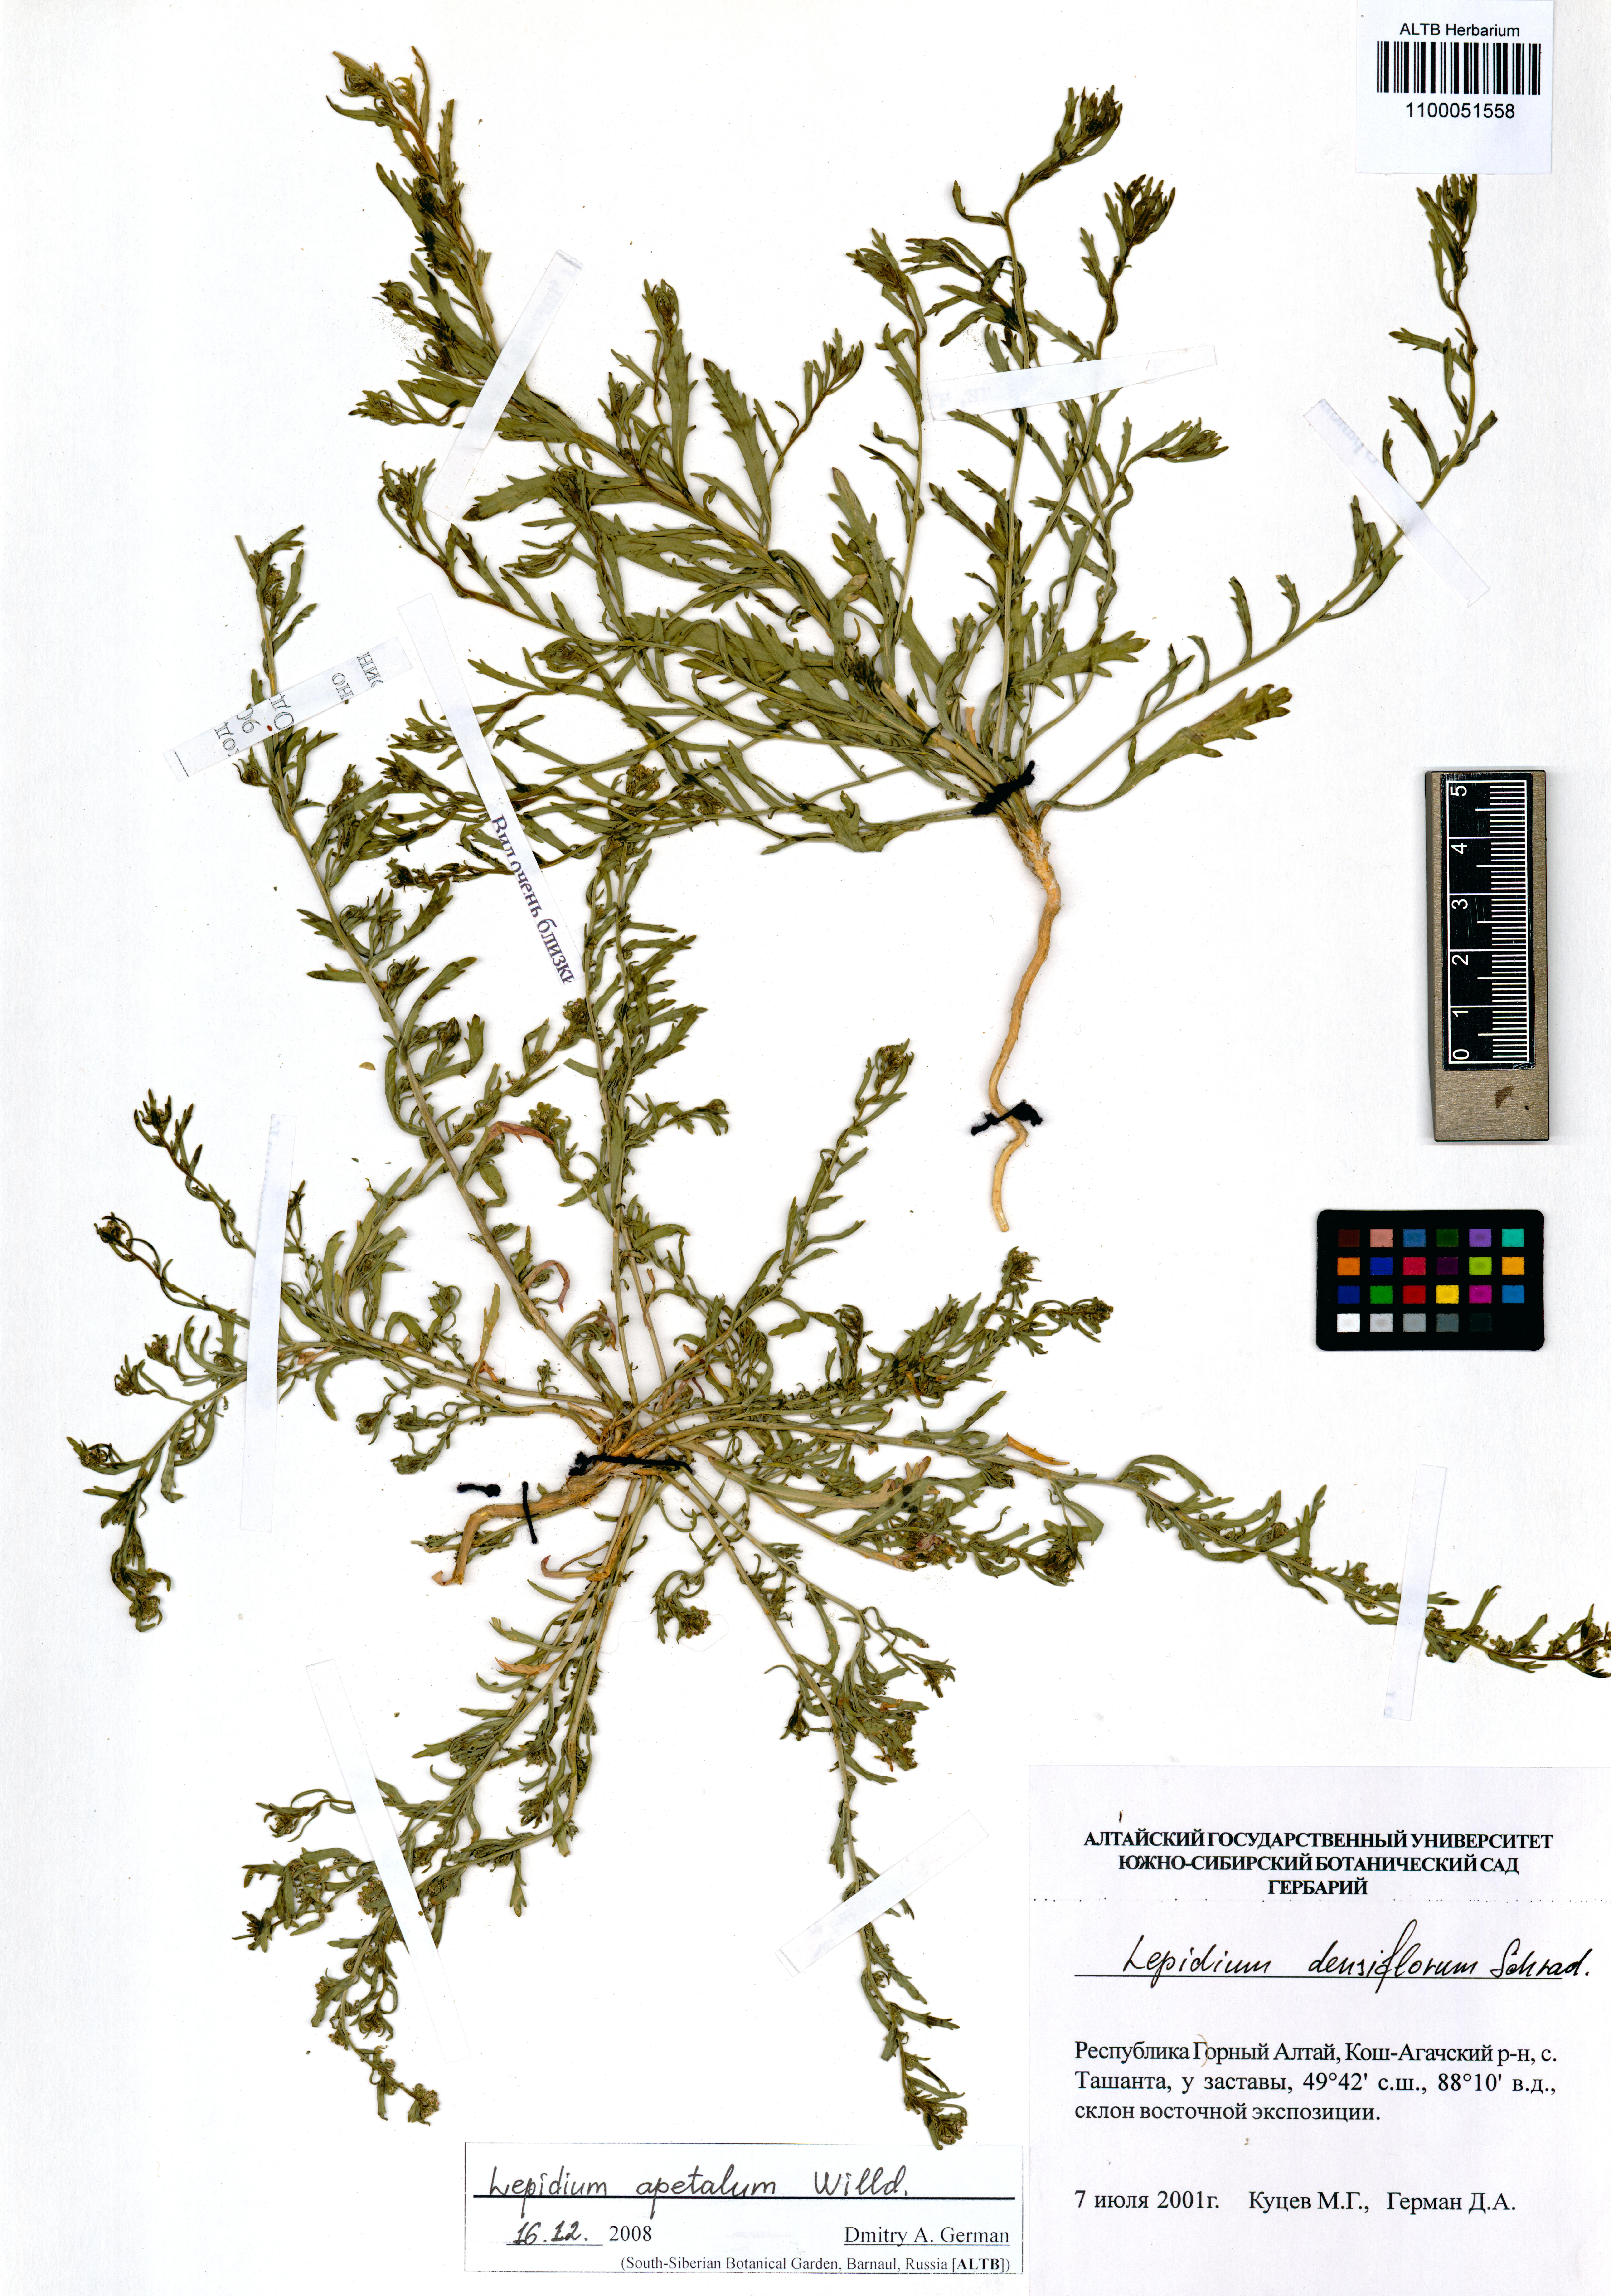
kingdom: Plantae
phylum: Tracheophyta
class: Magnoliopsida
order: Brassicales
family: Brassicaceae
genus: Lepidium
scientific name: Lepidium apetalum
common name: Pepperweed
